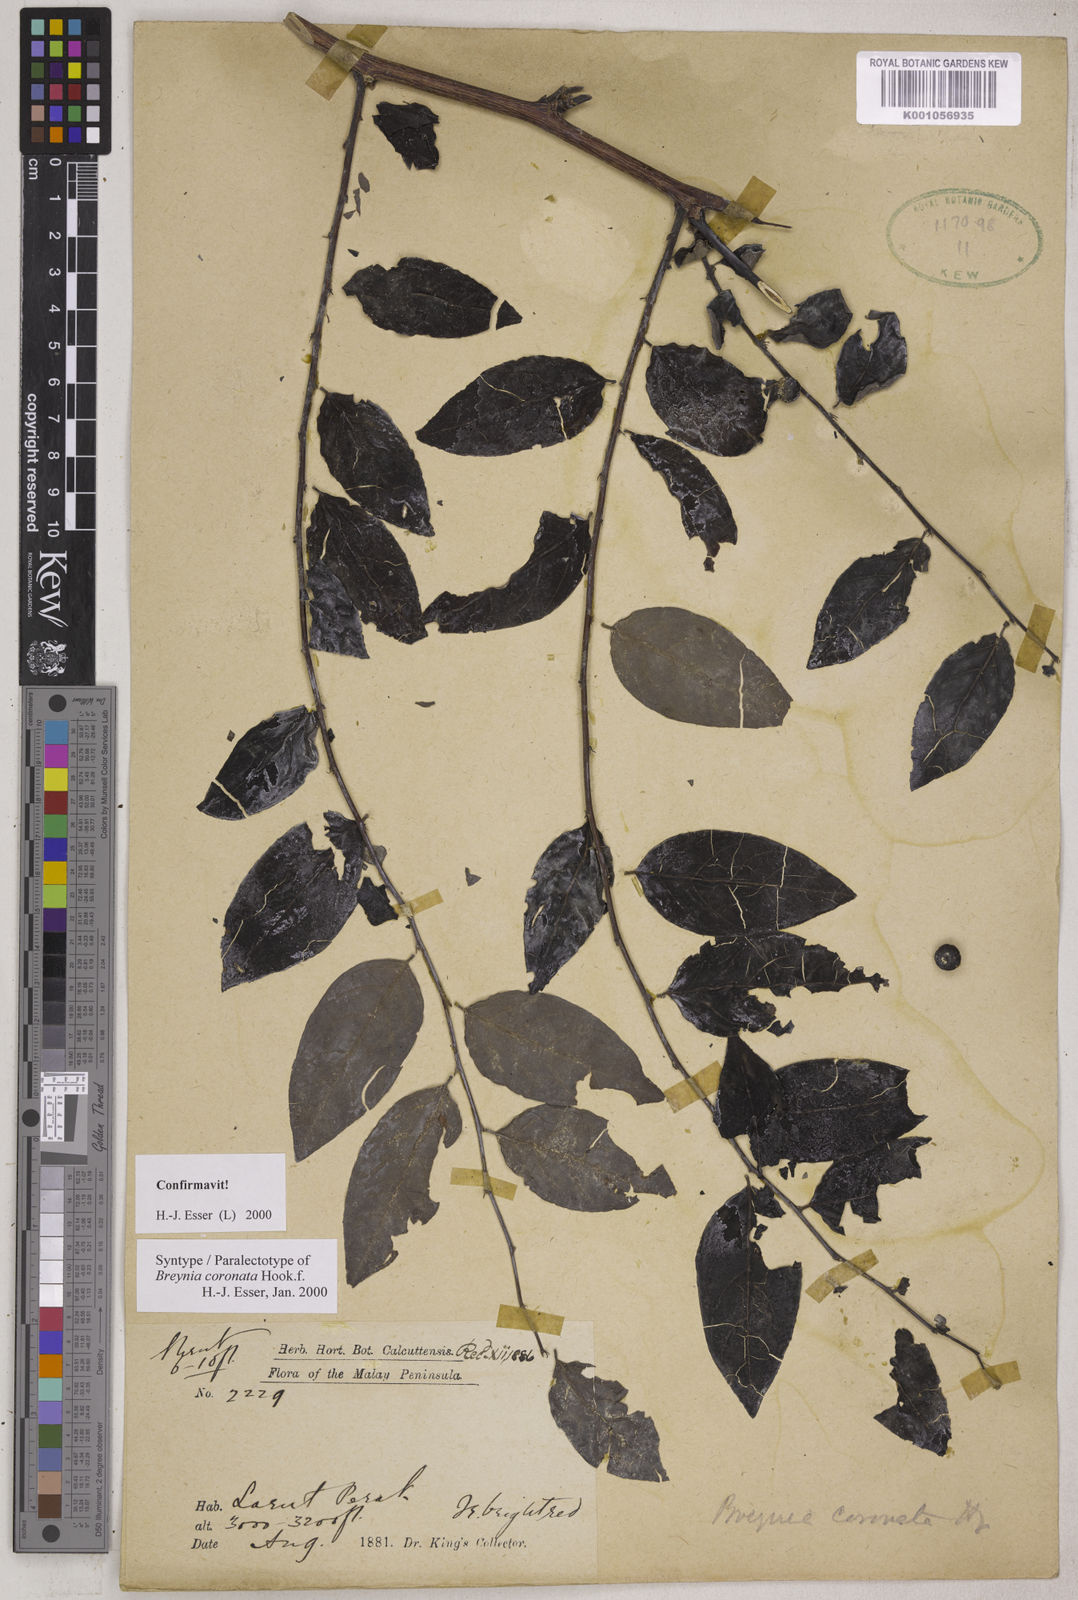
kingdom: Plantae
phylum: Tracheophyta
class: Magnoliopsida
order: Malpighiales
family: Phyllanthaceae
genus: Breynia
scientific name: Breynia coronata
